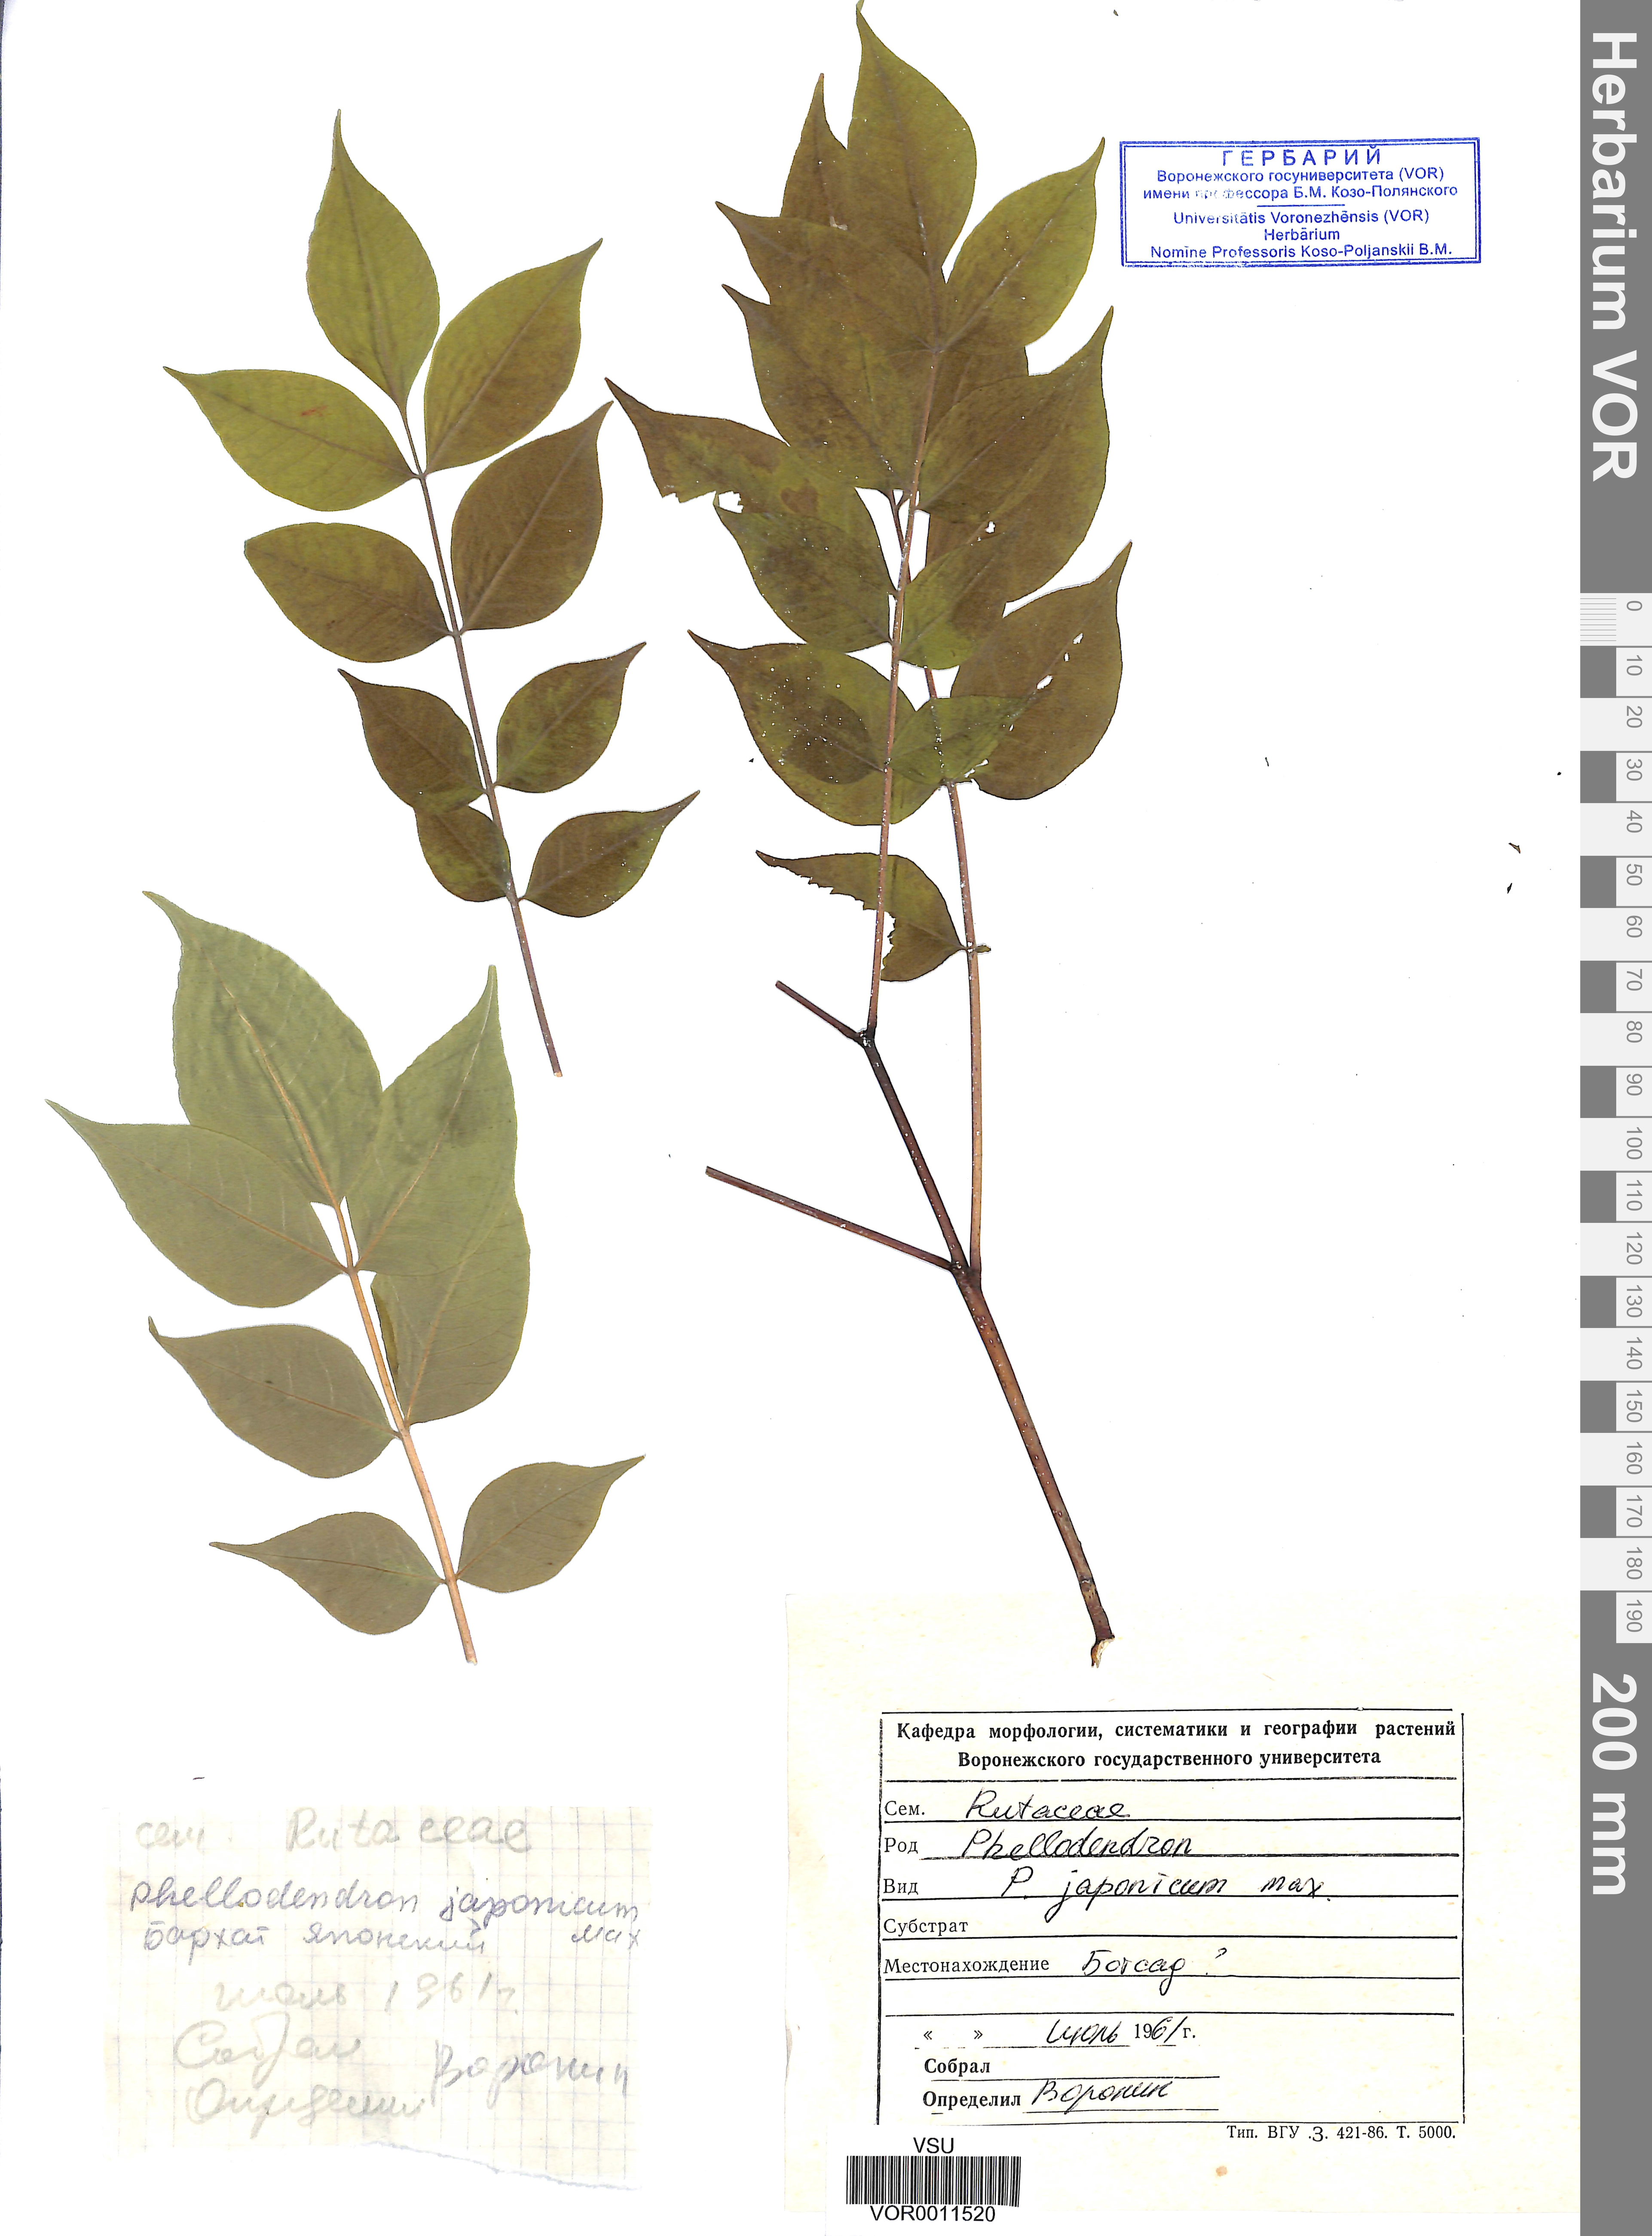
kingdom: Plantae
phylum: Tracheophyta
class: Magnoliopsida
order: Sapindales
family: Rutaceae
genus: Phellodendron
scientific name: Phellodendron amurense
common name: Amur corktree
